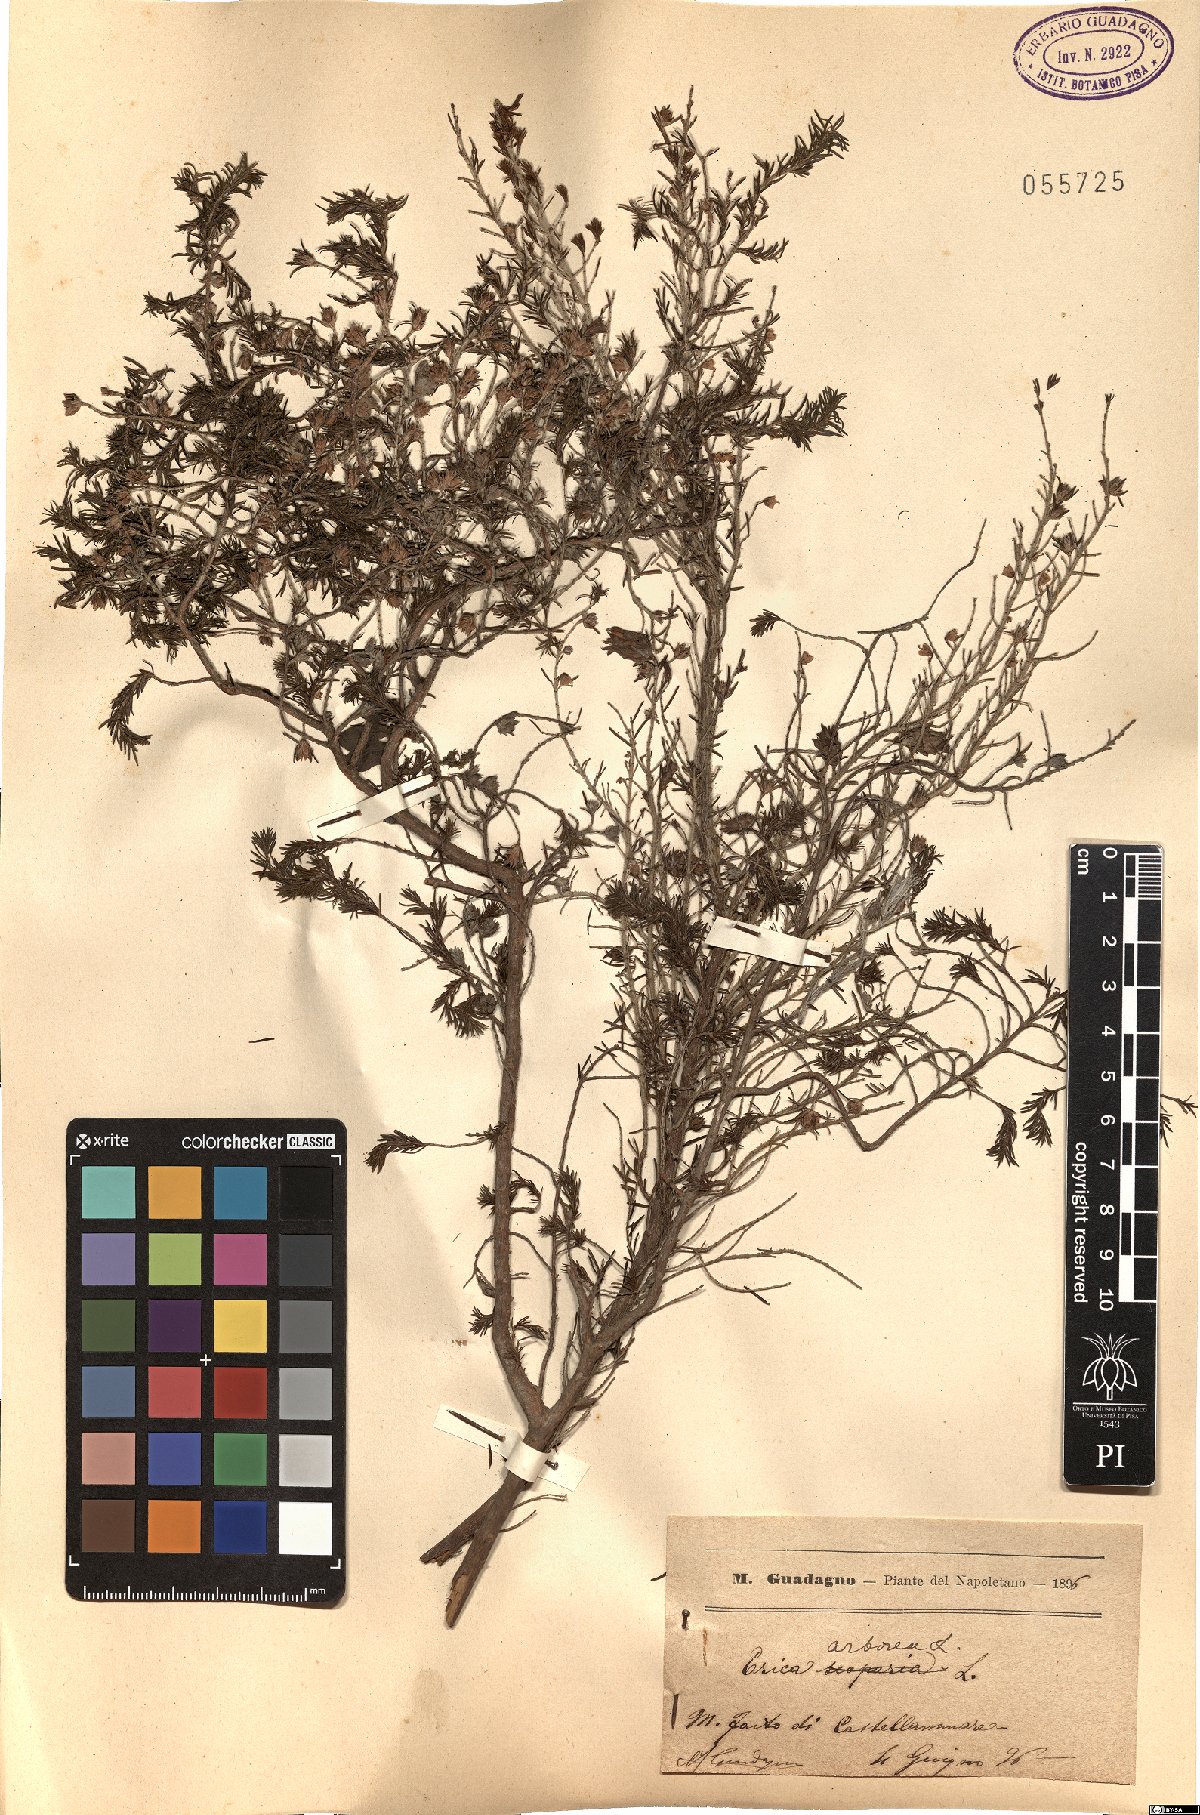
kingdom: Plantae
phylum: Tracheophyta
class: Magnoliopsida
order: Ericales
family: Ericaceae
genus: Erica
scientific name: Erica arborea
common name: Tree heath
